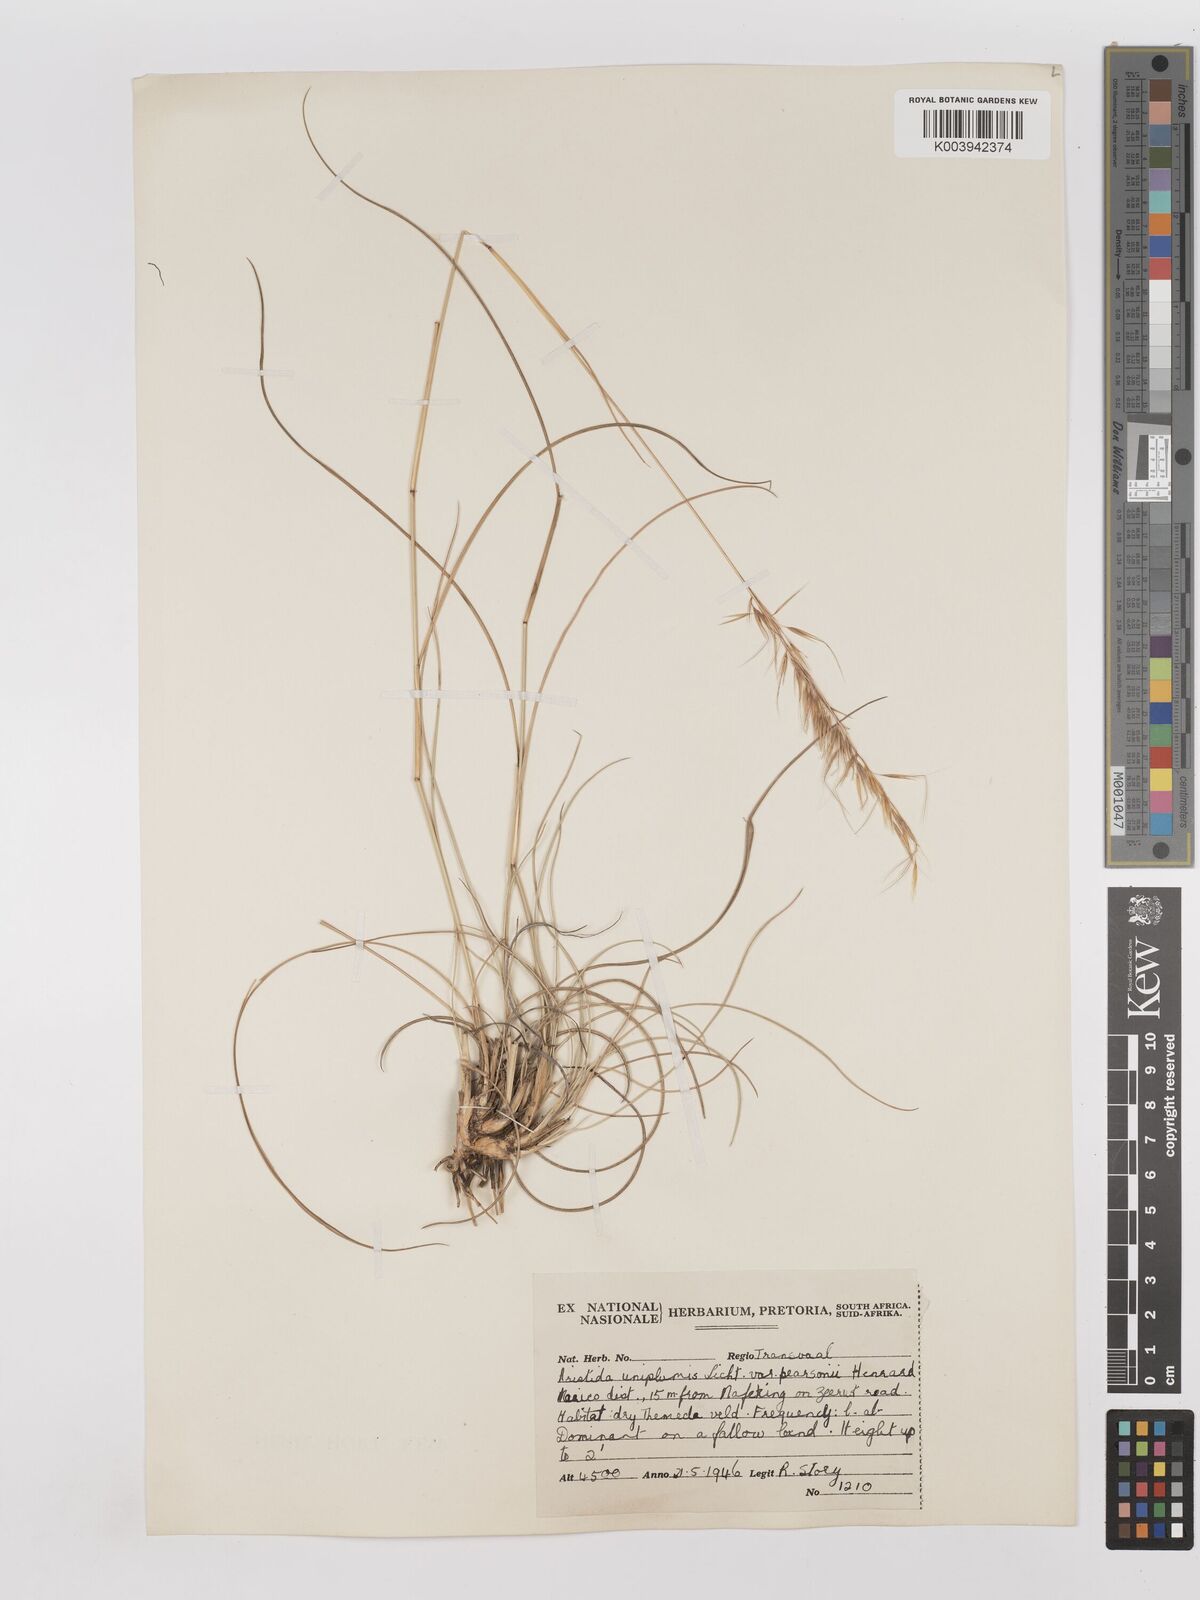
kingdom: Plantae
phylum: Tracheophyta
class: Liliopsida
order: Poales
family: Poaceae
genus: Stipagrostis
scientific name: Stipagrostis uniplumis
